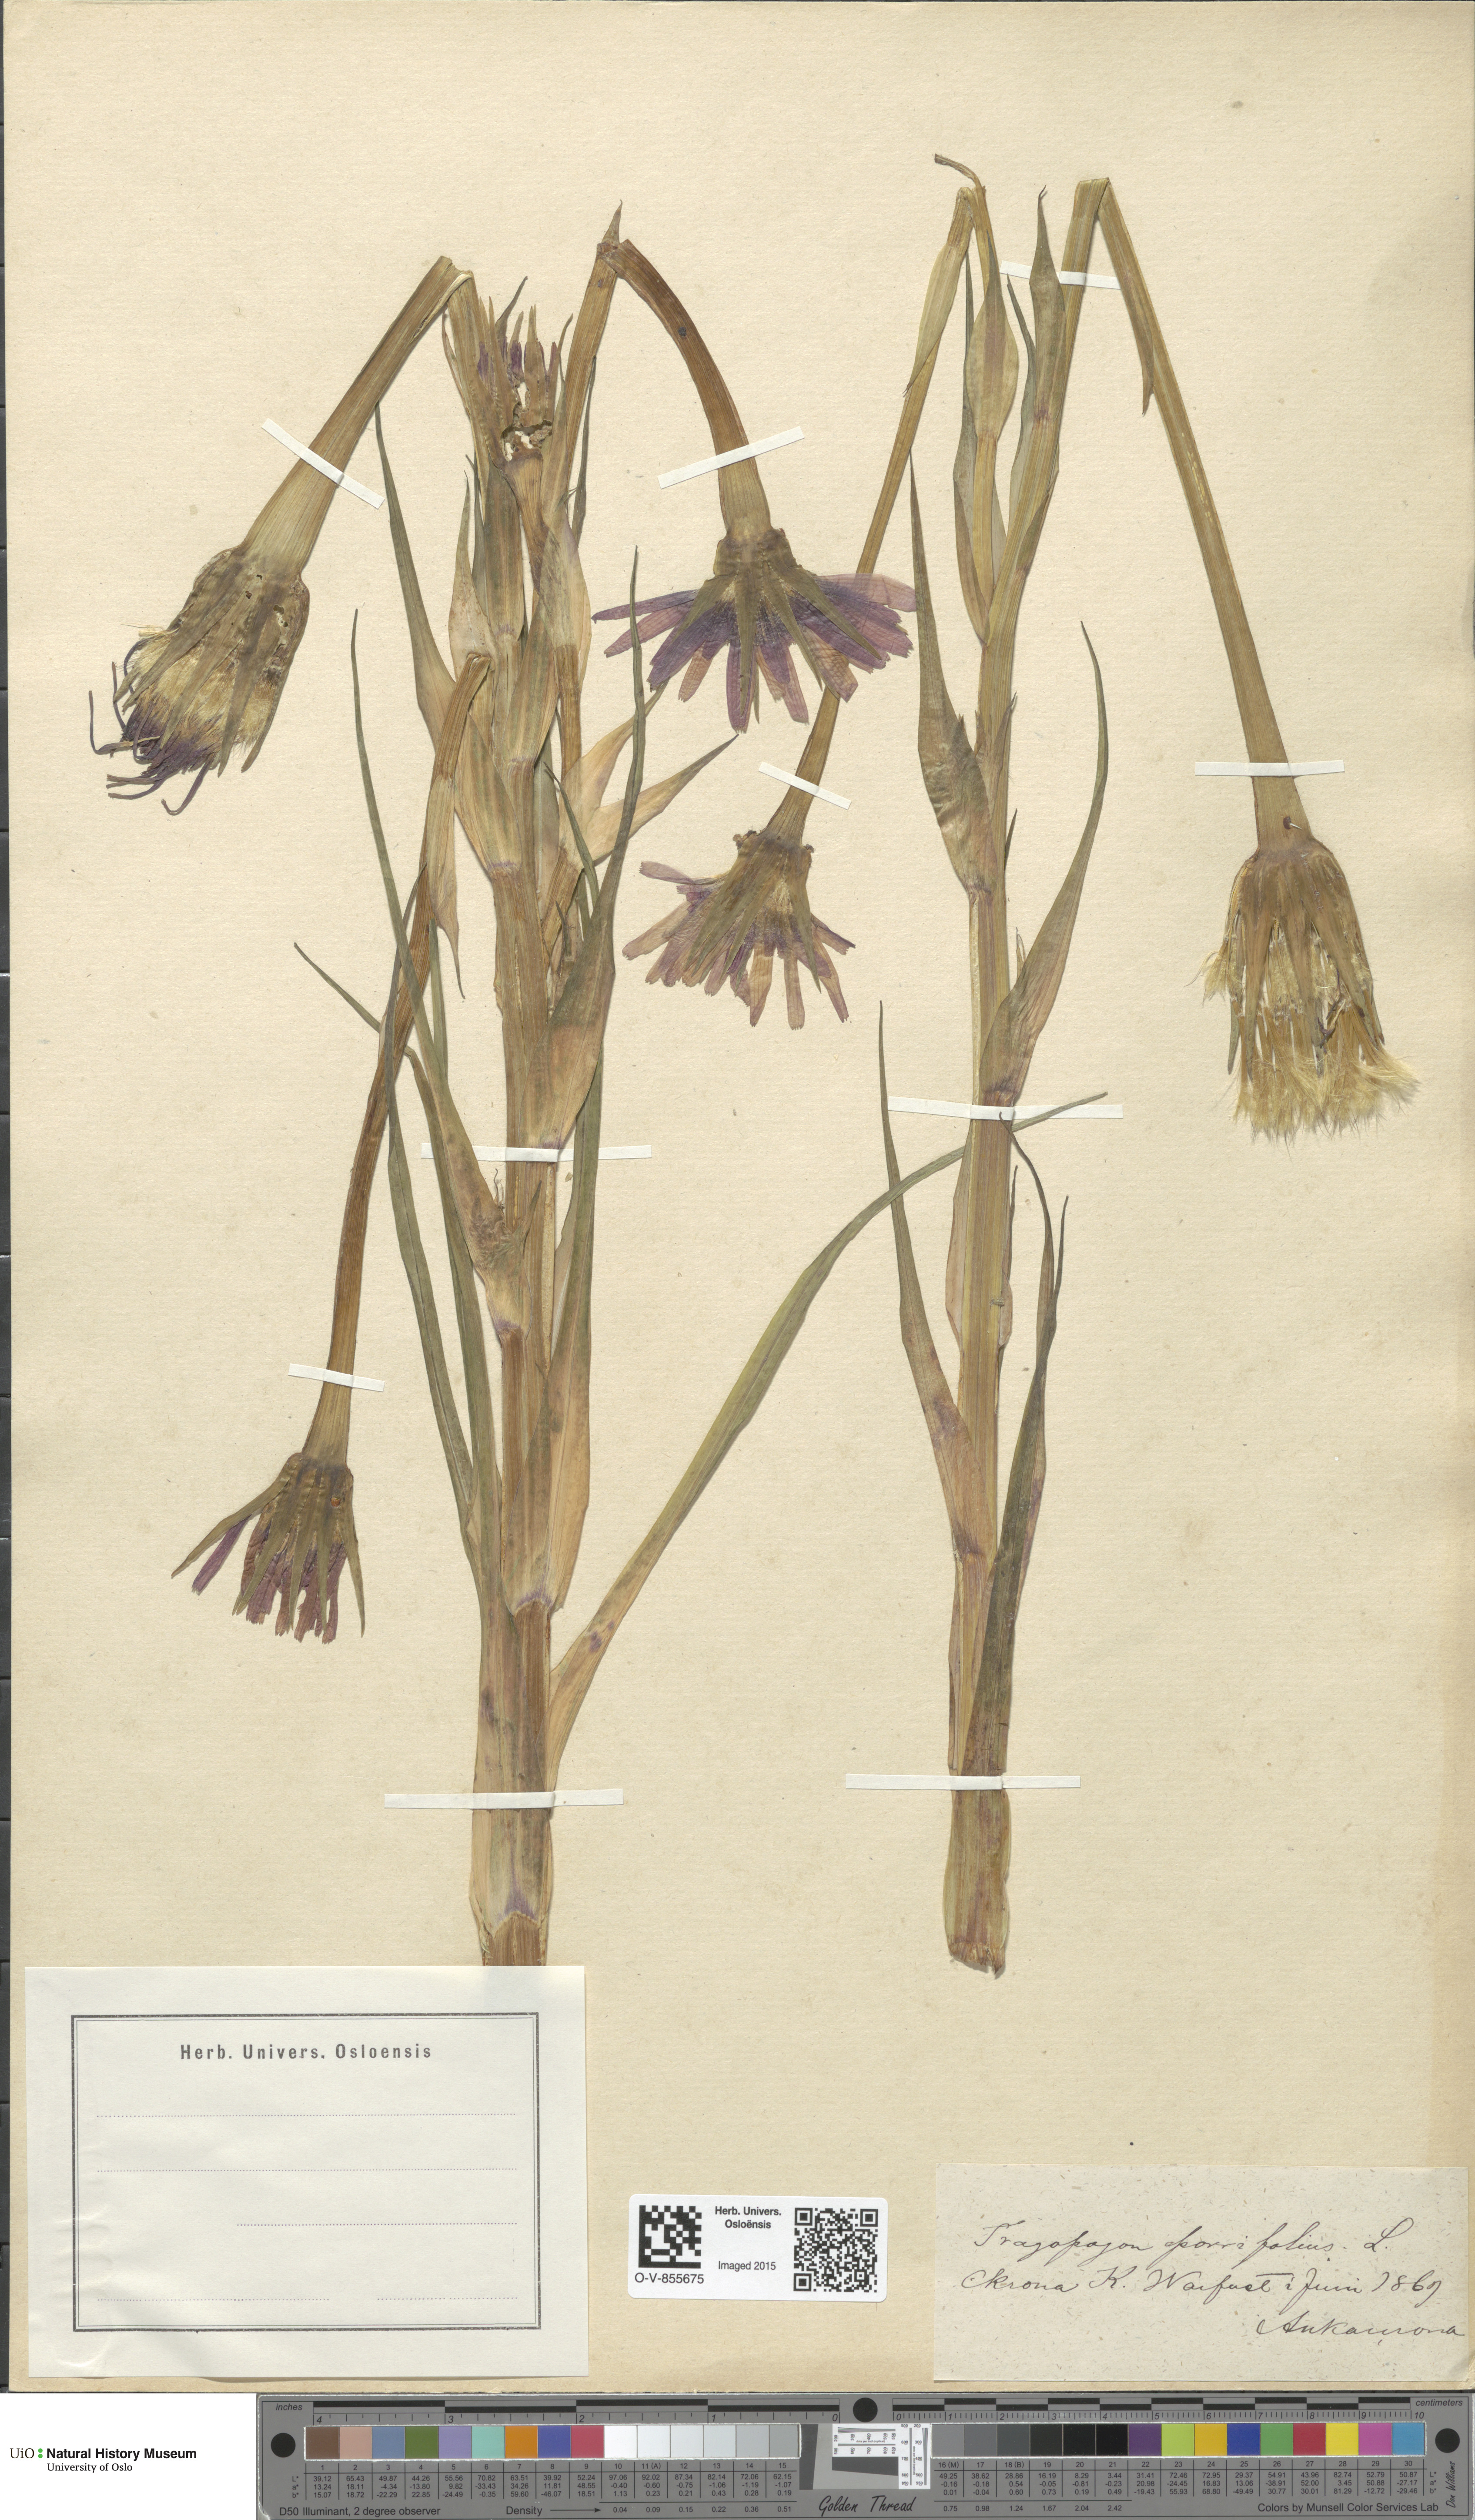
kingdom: Plantae
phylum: Tracheophyta
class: Magnoliopsida
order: Asterales
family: Asteraceae
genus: Tragopogon
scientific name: Tragopogon porrifolius
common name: Salsify
